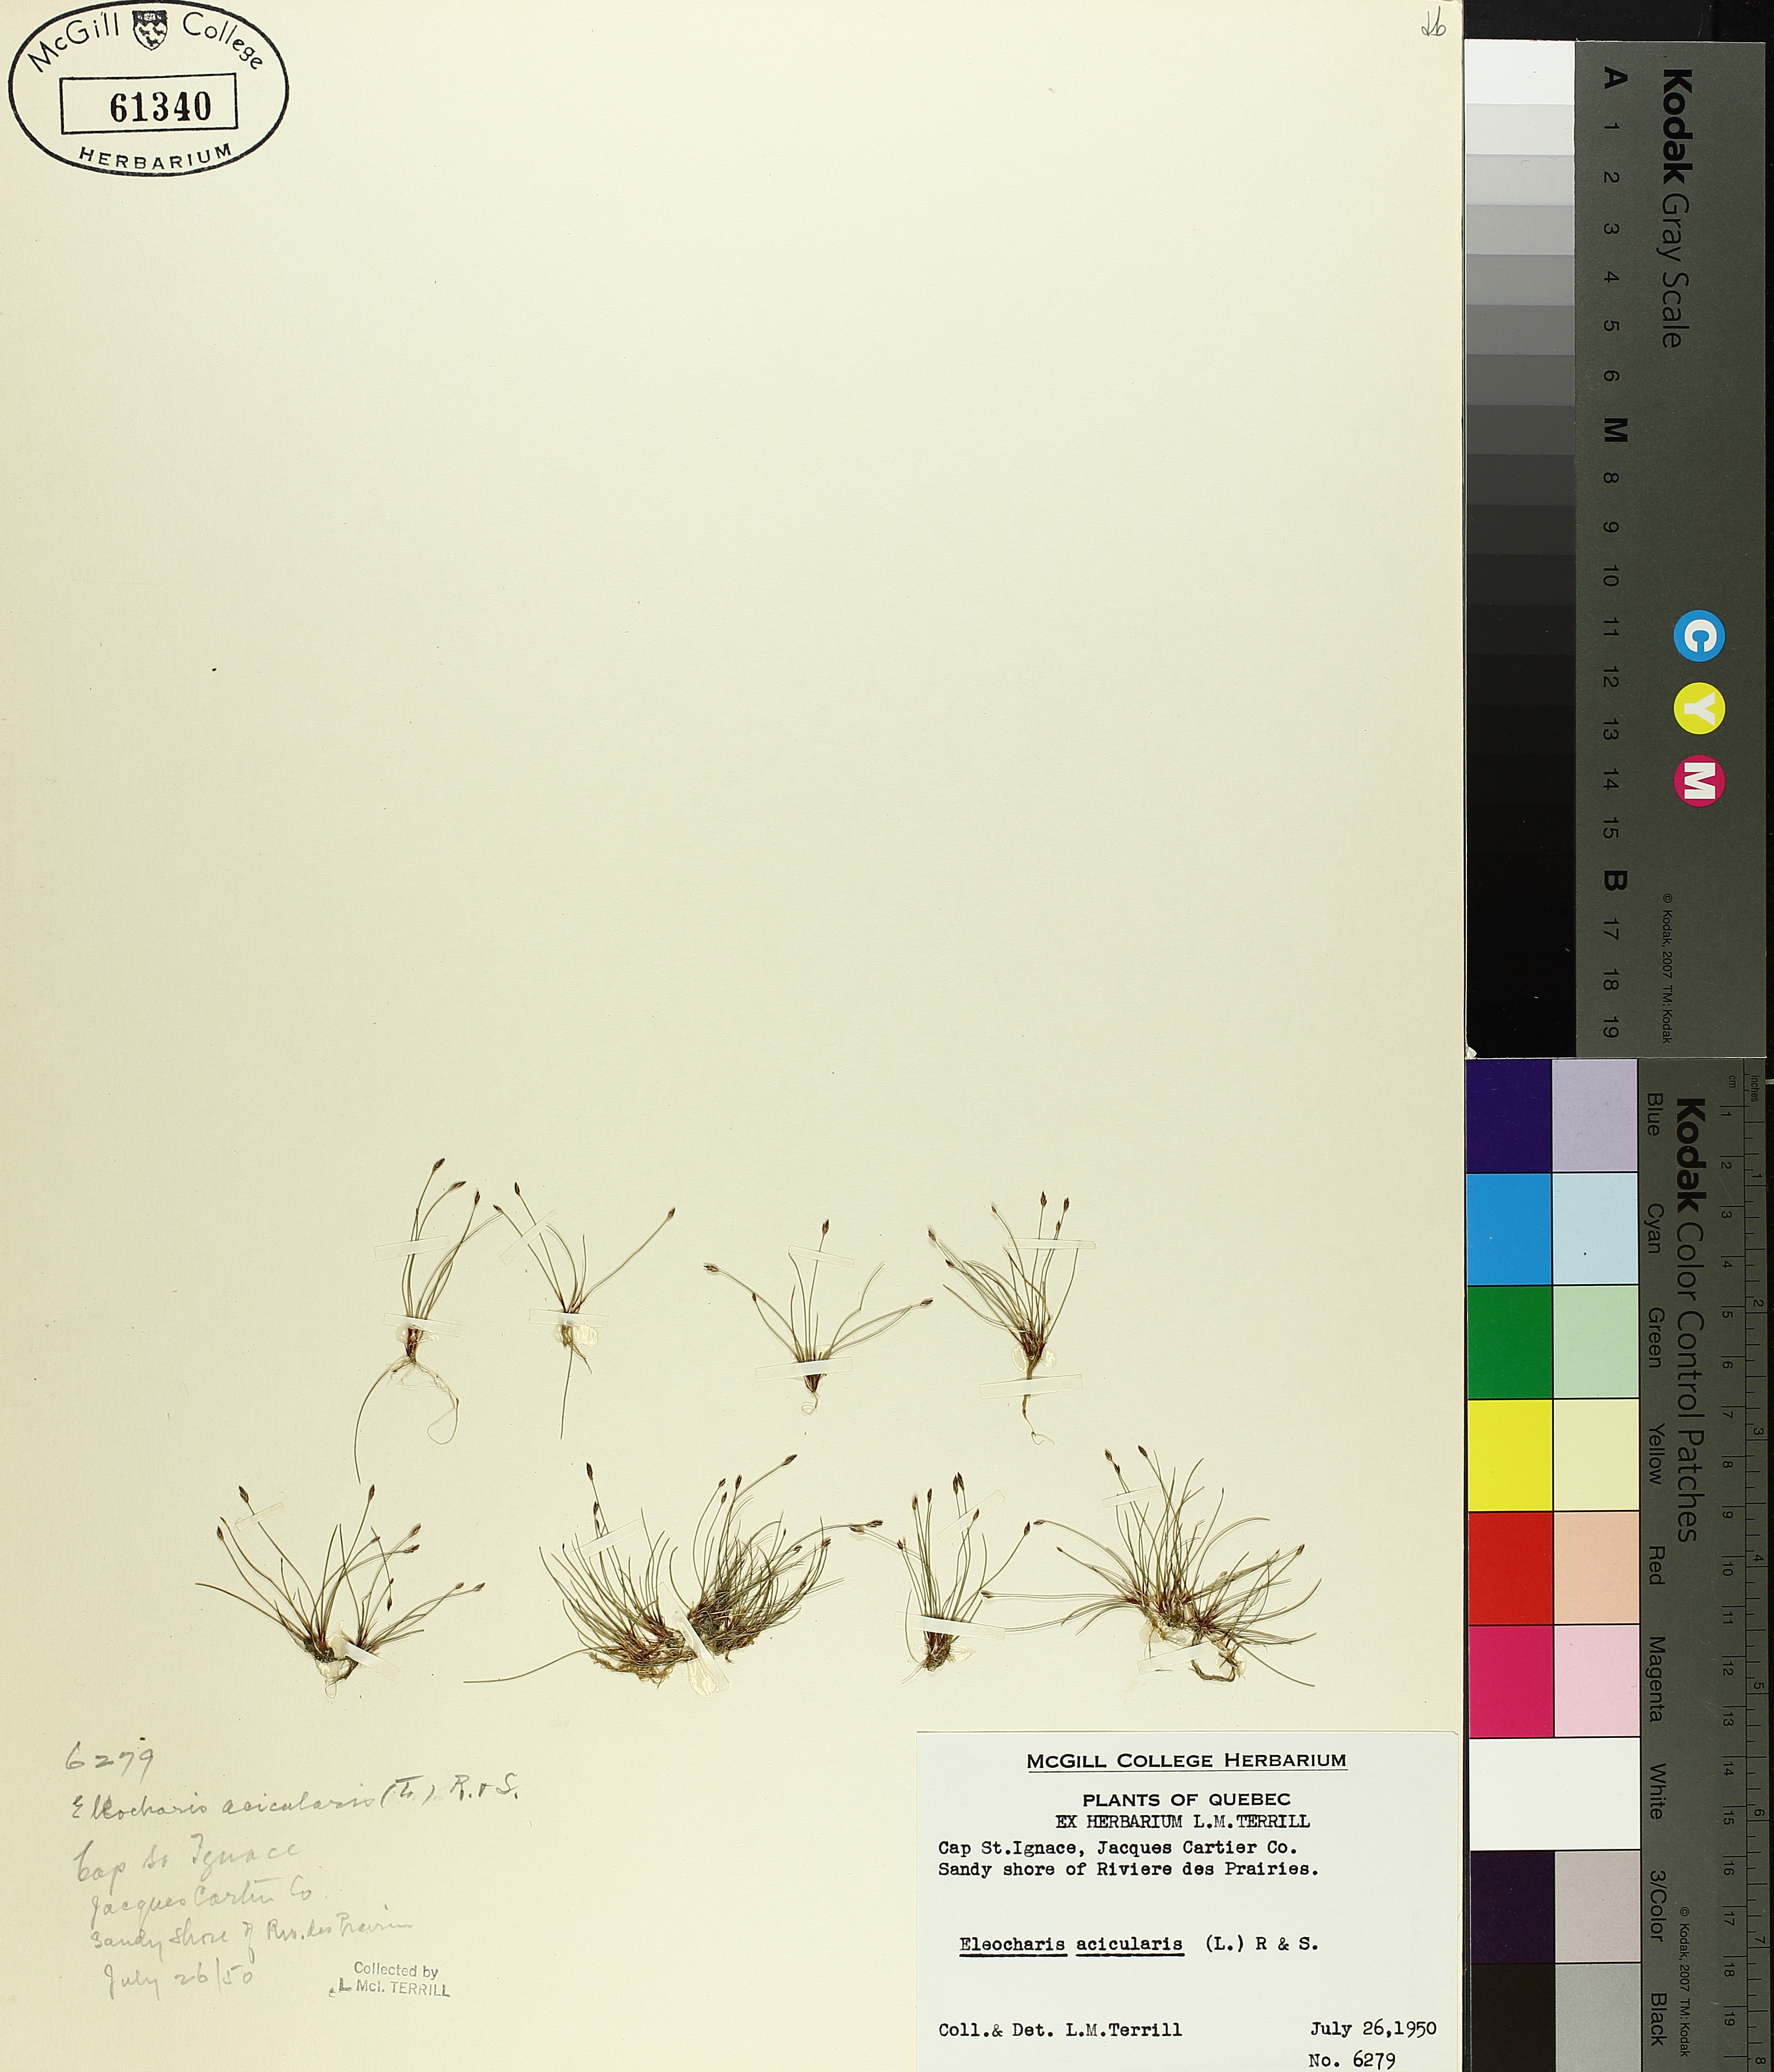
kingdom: Plantae
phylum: Tracheophyta
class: Liliopsida
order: Poales
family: Cyperaceae
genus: Eleocharis
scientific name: Eleocharis acicularis
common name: Needle spike-rush
